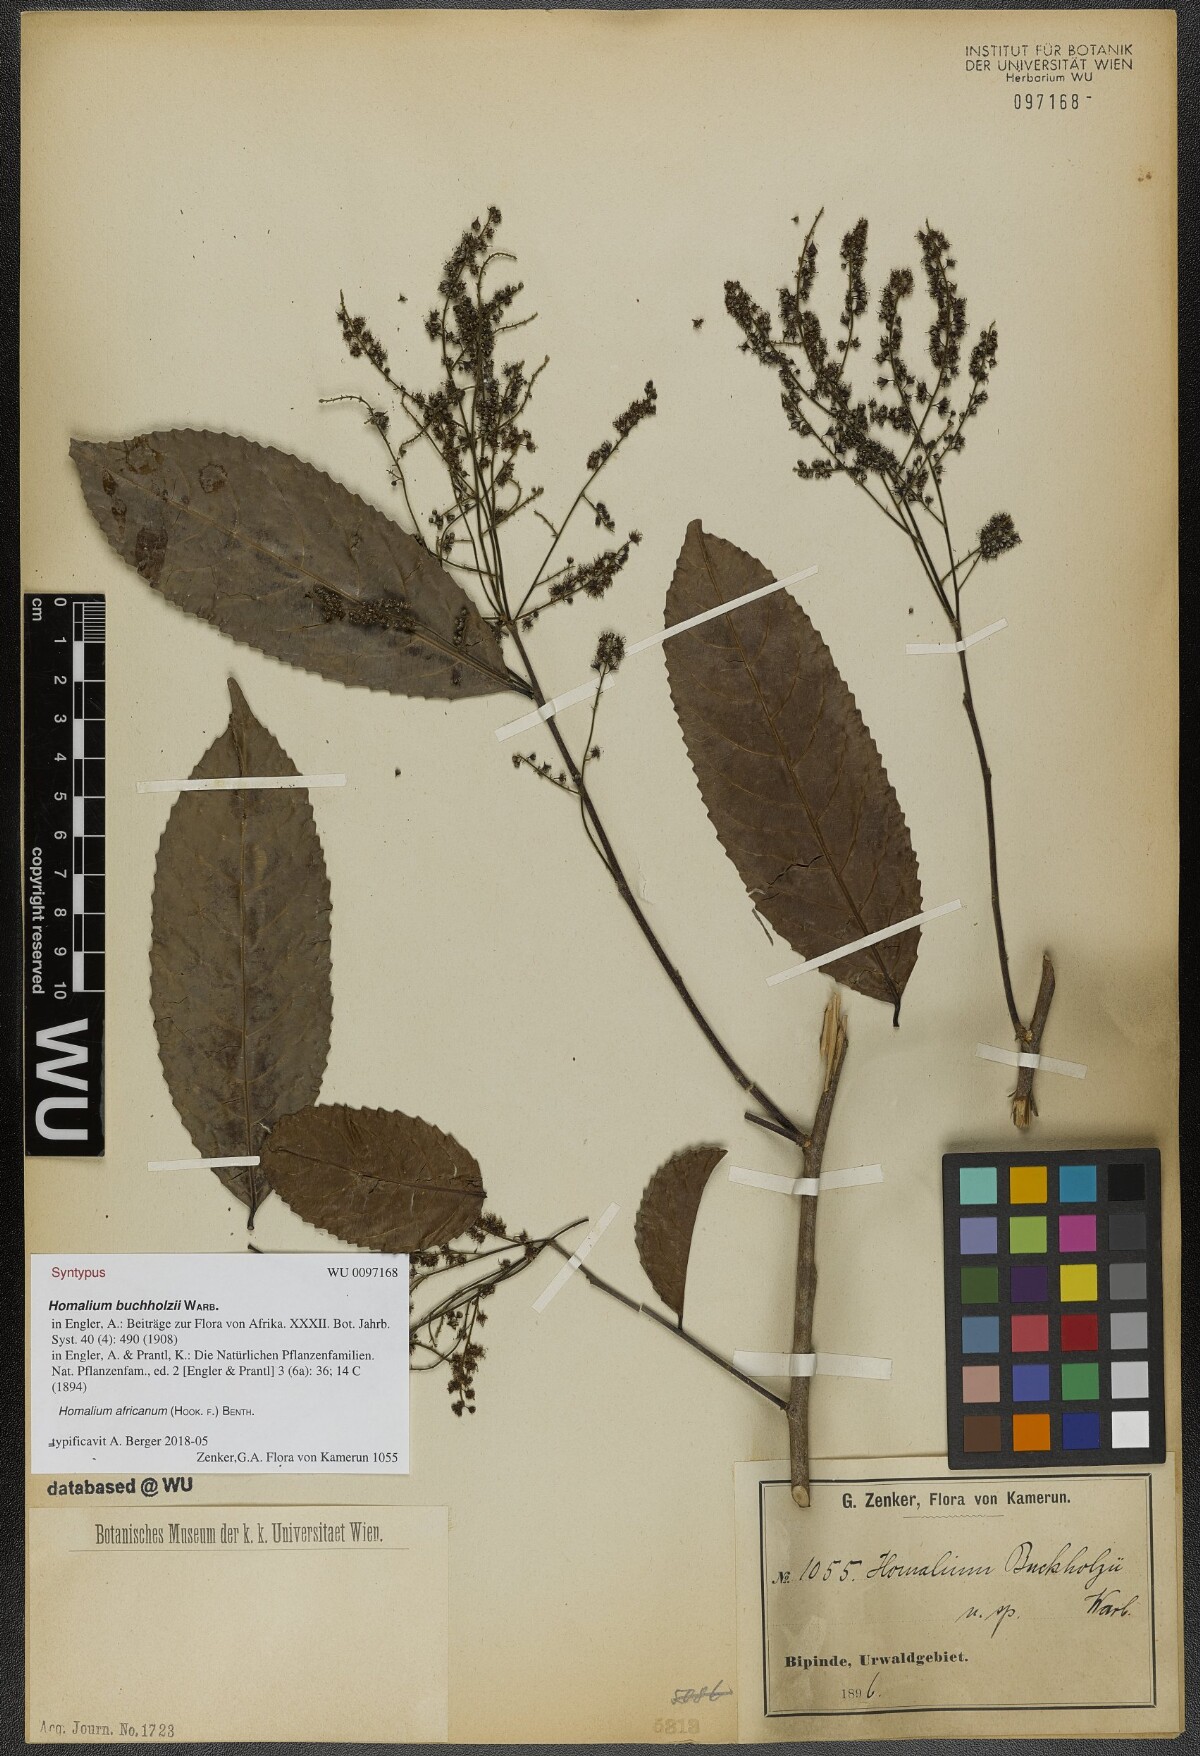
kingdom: Plantae
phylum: Tracheophyta
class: Magnoliopsida
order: Malpighiales
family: Salicaceae
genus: Homalium
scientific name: Homalium africanum
